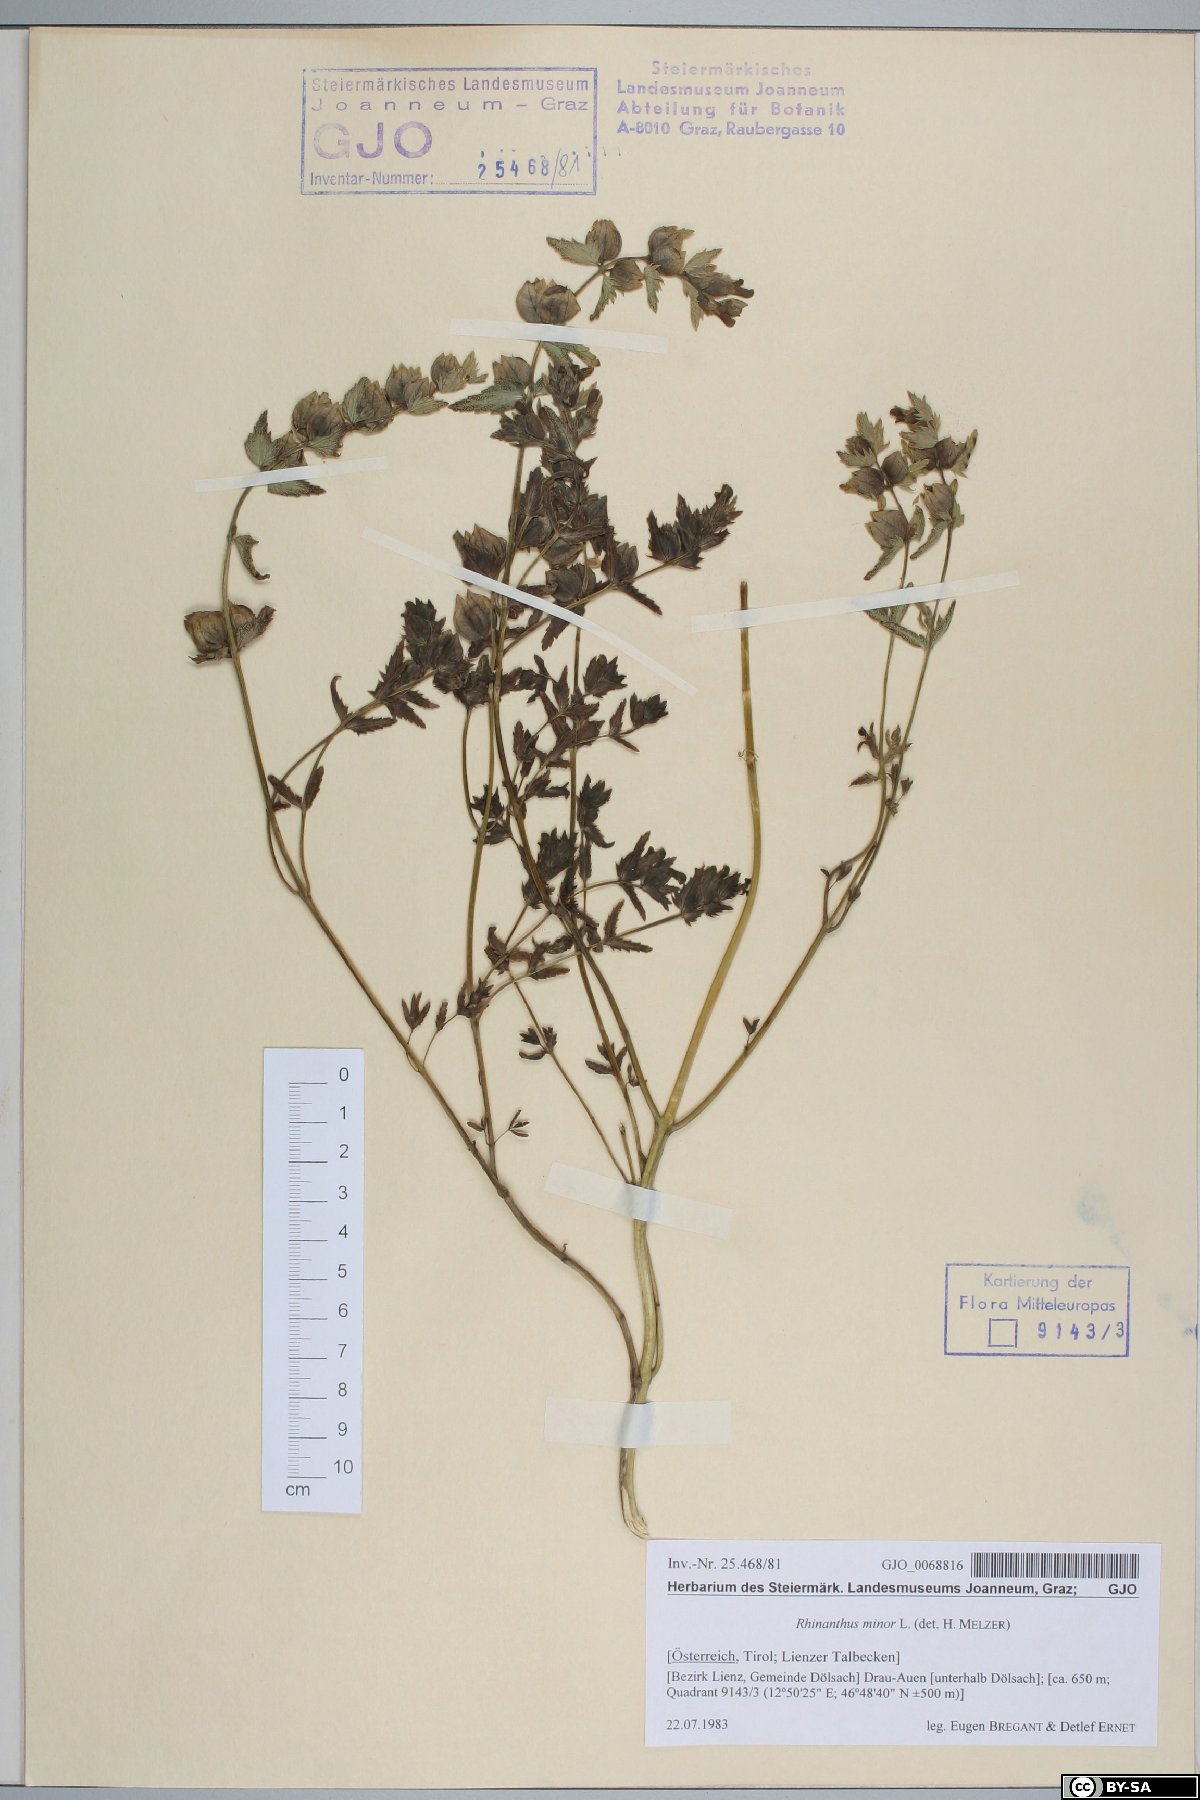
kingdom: Plantae
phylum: Tracheophyta
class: Magnoliopsida
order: Lamiales
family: Orobanchaceae
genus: Rhinanthus
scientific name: Rhinanthus minor
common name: Yellow-rattle
